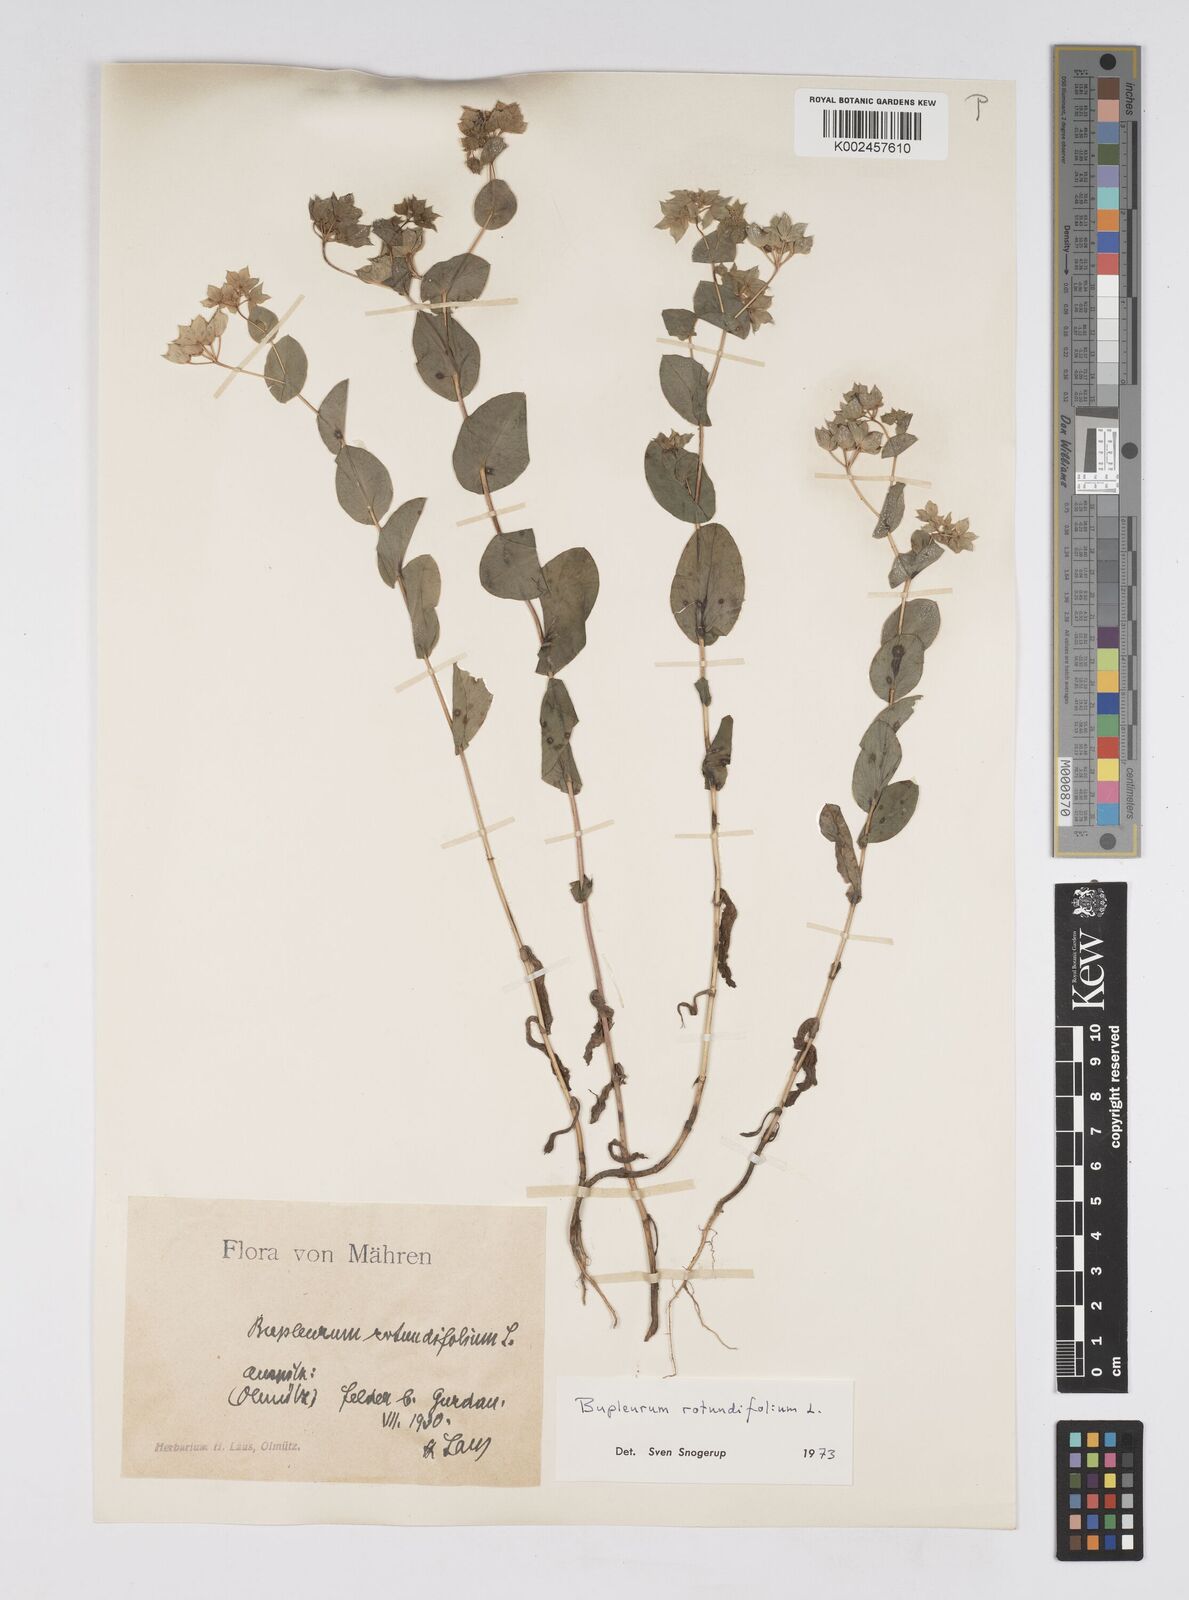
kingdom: Plantae
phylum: Tracheophyta
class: Magnoliopsida
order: Apiales
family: Apiaceae
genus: Bupleurum
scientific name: Bupleurum rotundifolium
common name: Thorow-wax
